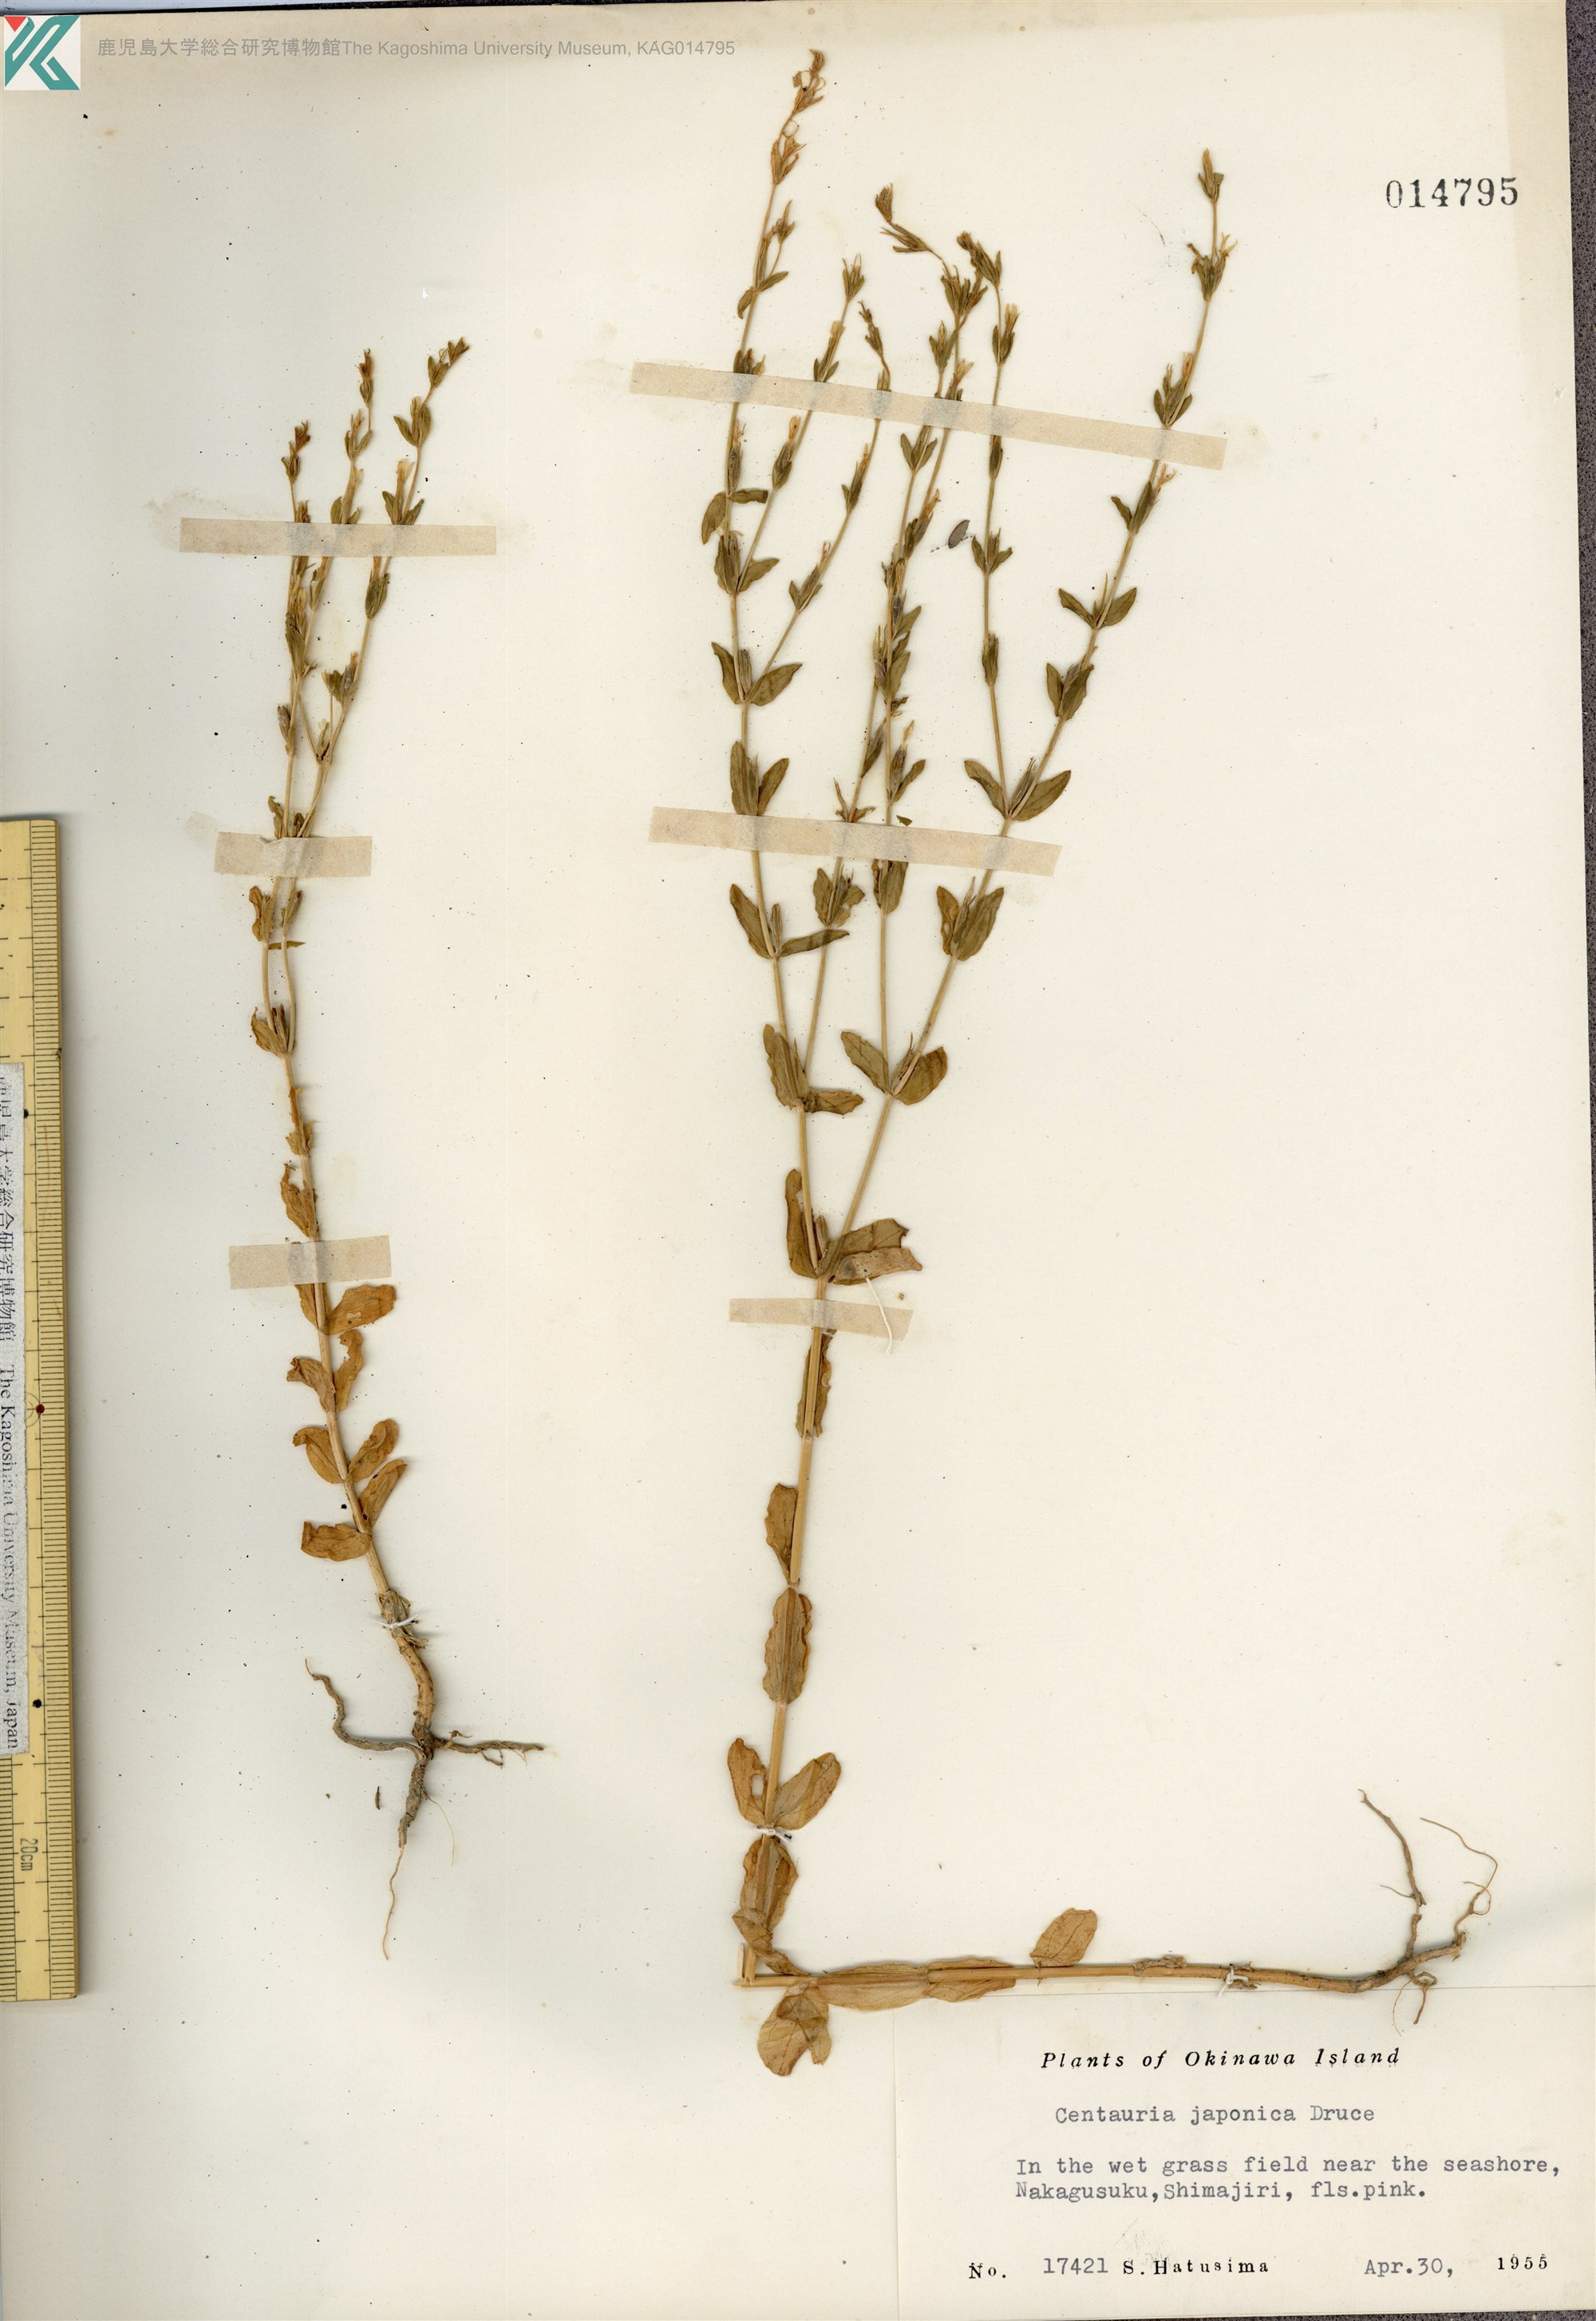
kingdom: Plantae
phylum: Tracheophyta
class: Magnoliopsida
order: Gentianales
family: Gentianaceae
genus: Schenkia
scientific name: Schenkia japonica
